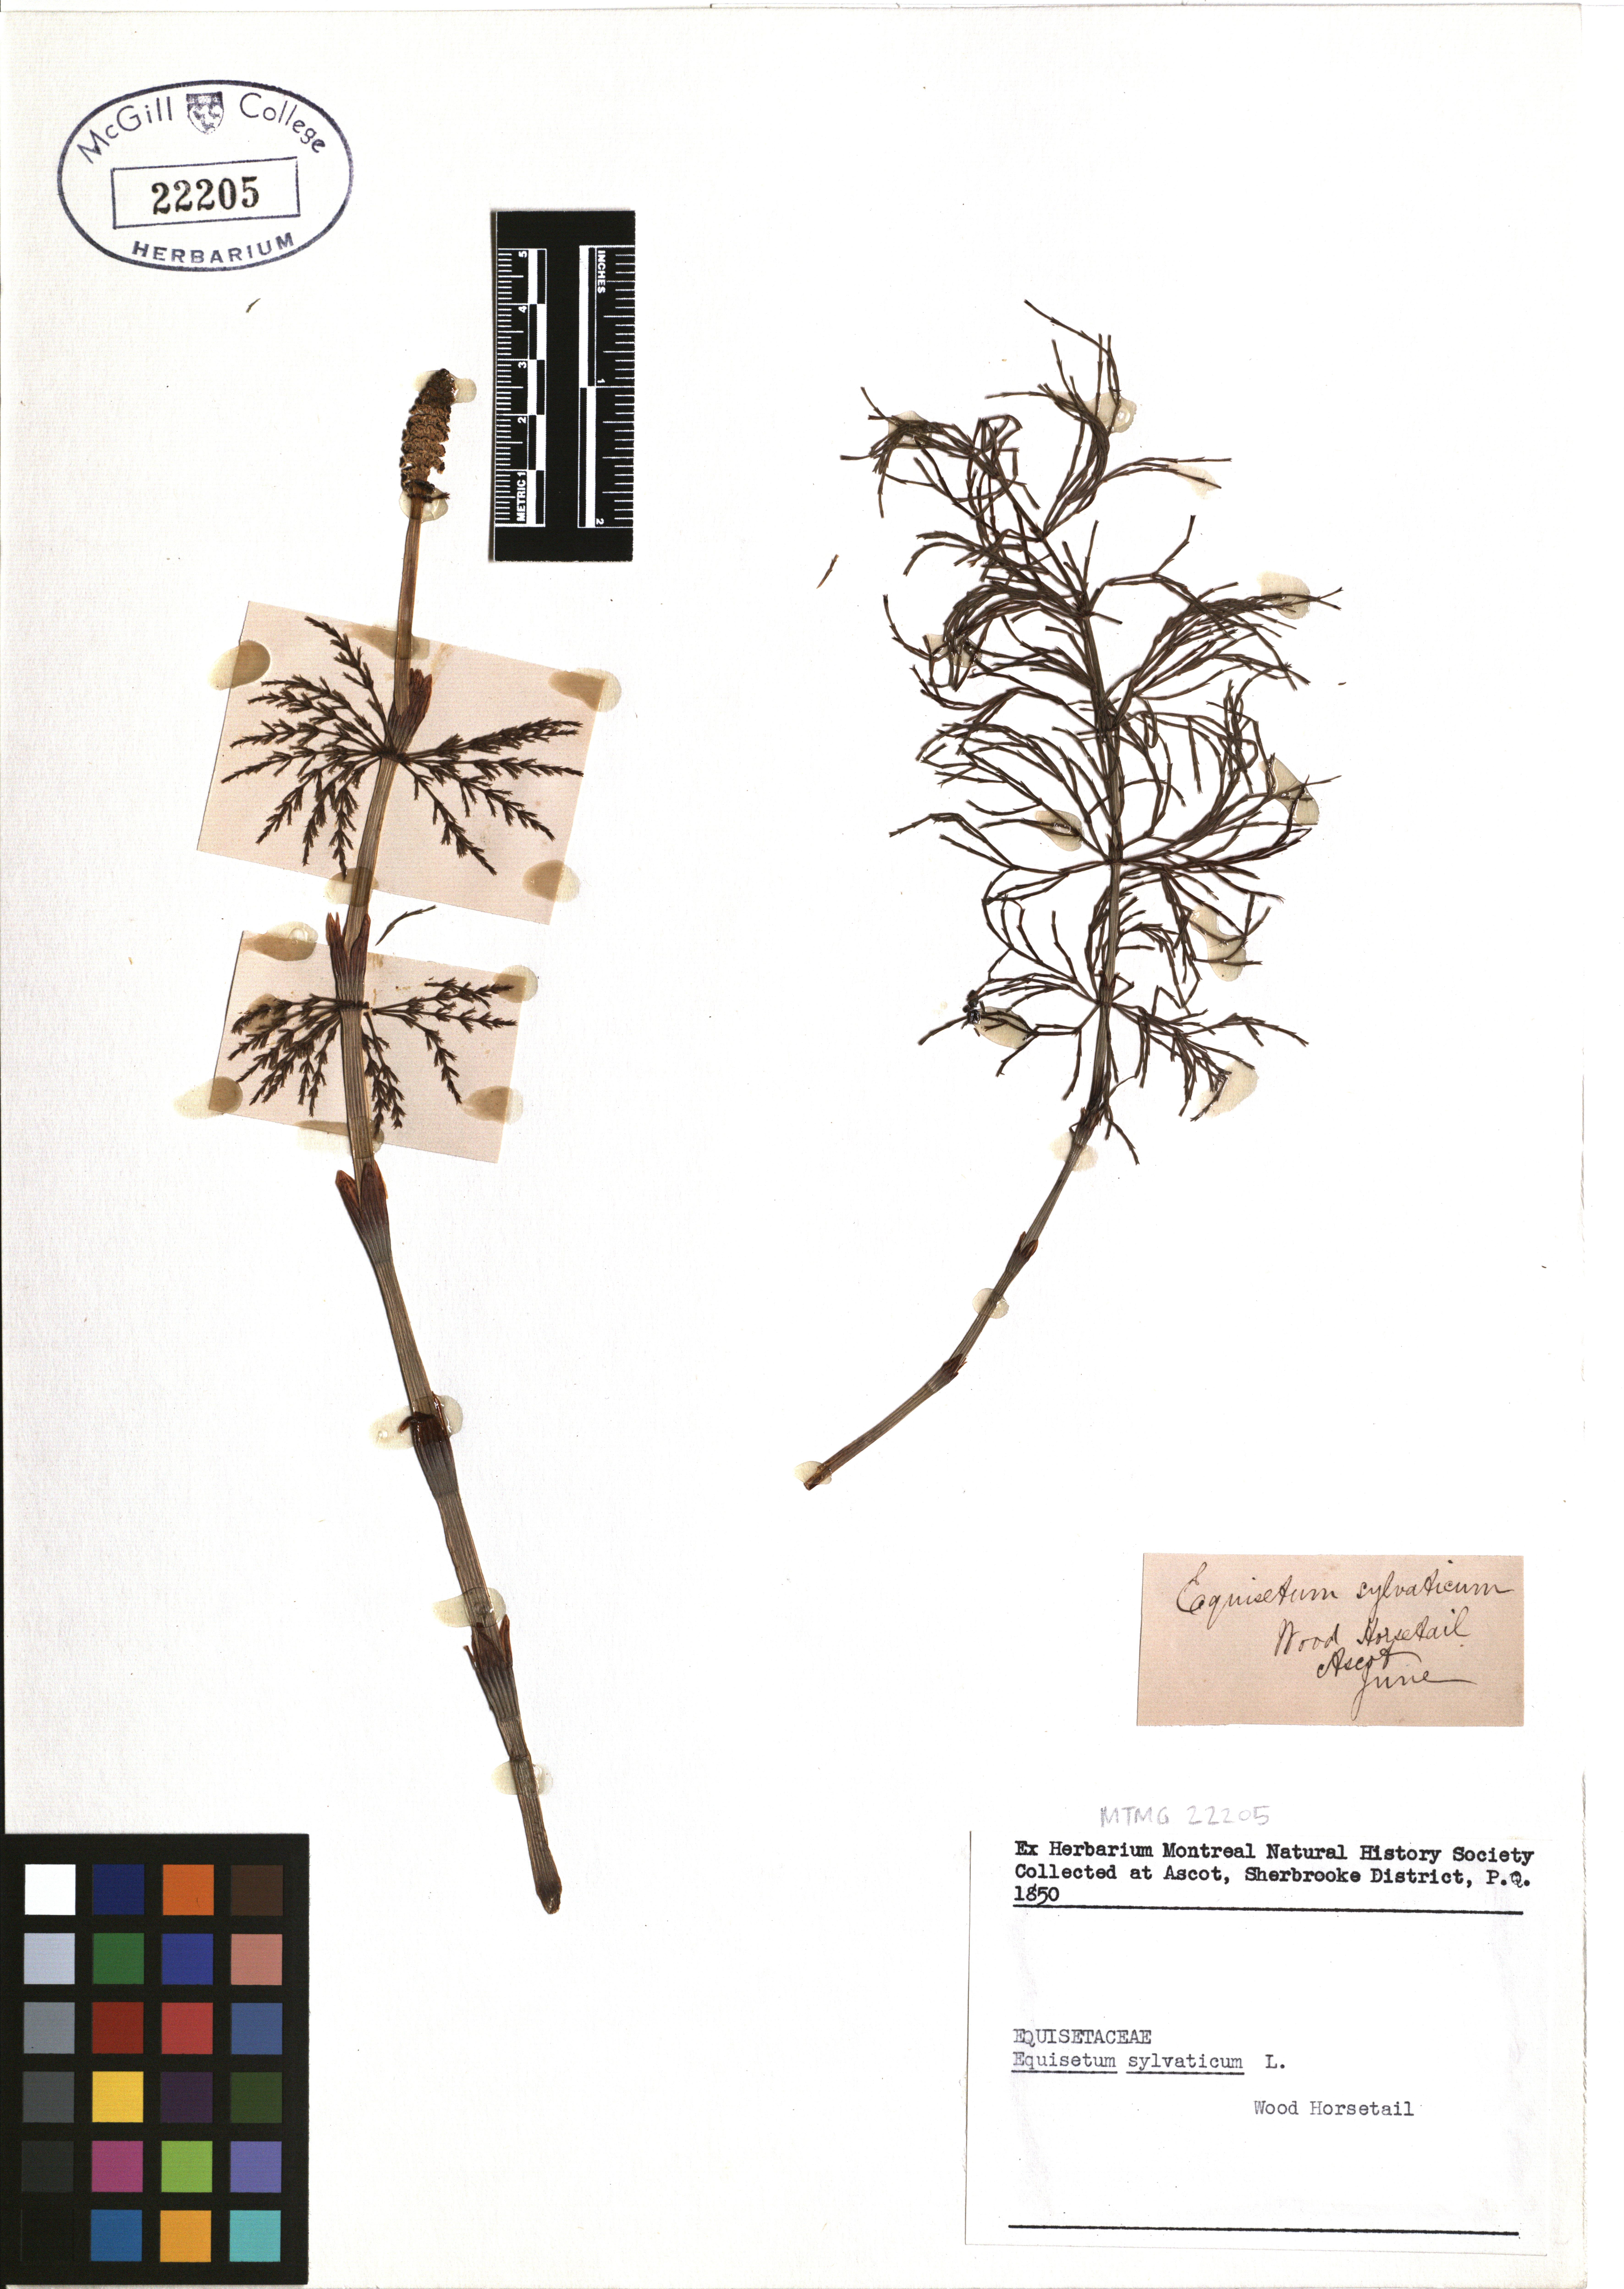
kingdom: Plantae
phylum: Tracheophyta
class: Polypodiopsida
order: Equisetales
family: Equisetaceae
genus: Equisetum
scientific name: Equisetum sylvaticum
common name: Wood horsetail
